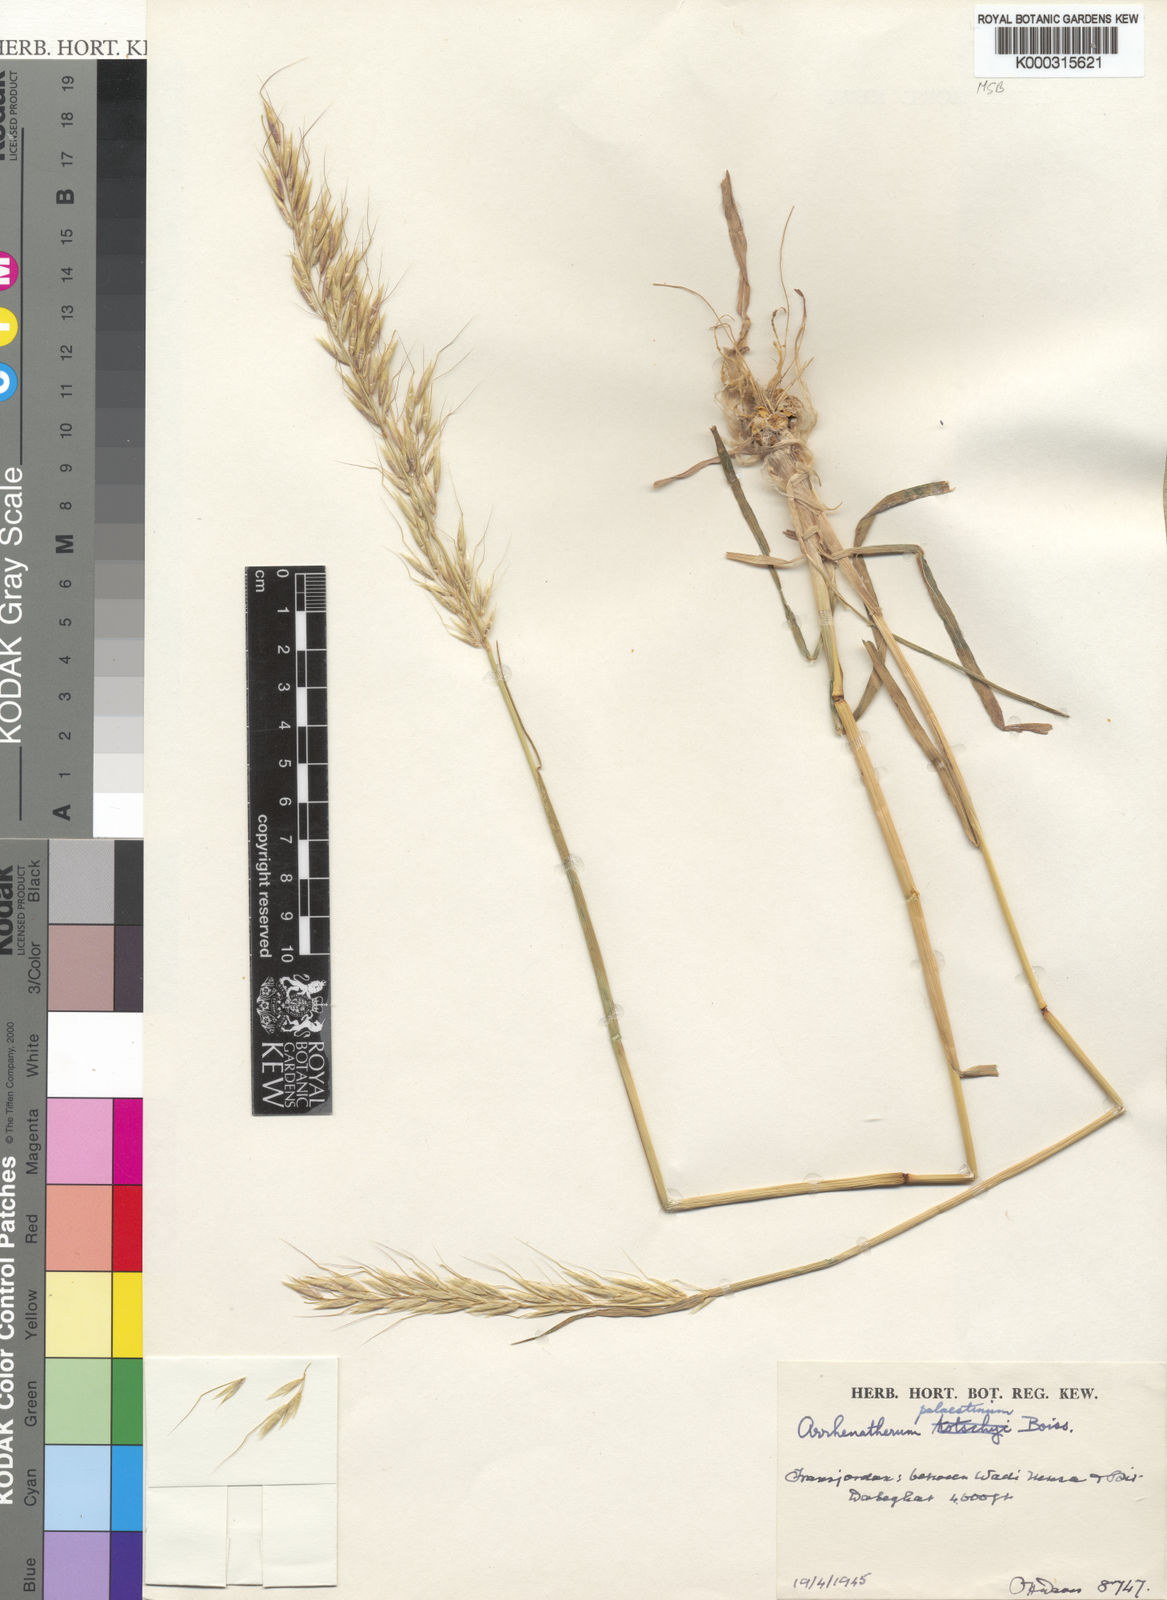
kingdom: Plantae
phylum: Tracheophyta
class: Liliopsida
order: Poales
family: Poaceae
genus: Arrhenatherum
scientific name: Arrhenatherum palaestinum
